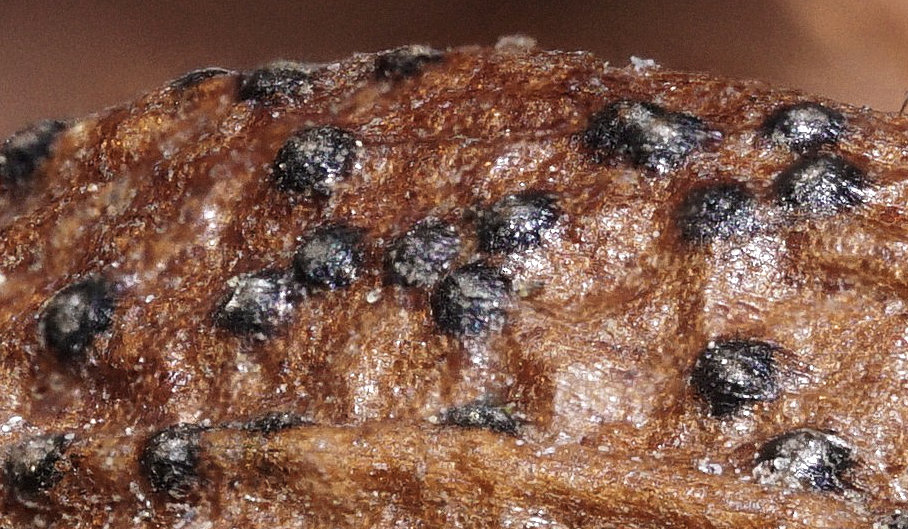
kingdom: Fungi
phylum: Ascomycota
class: Dothideomycetes
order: Botryosphaeriales
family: Phyllostictaceae
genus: Phyllosticta
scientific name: Phyllosticta foliorum
